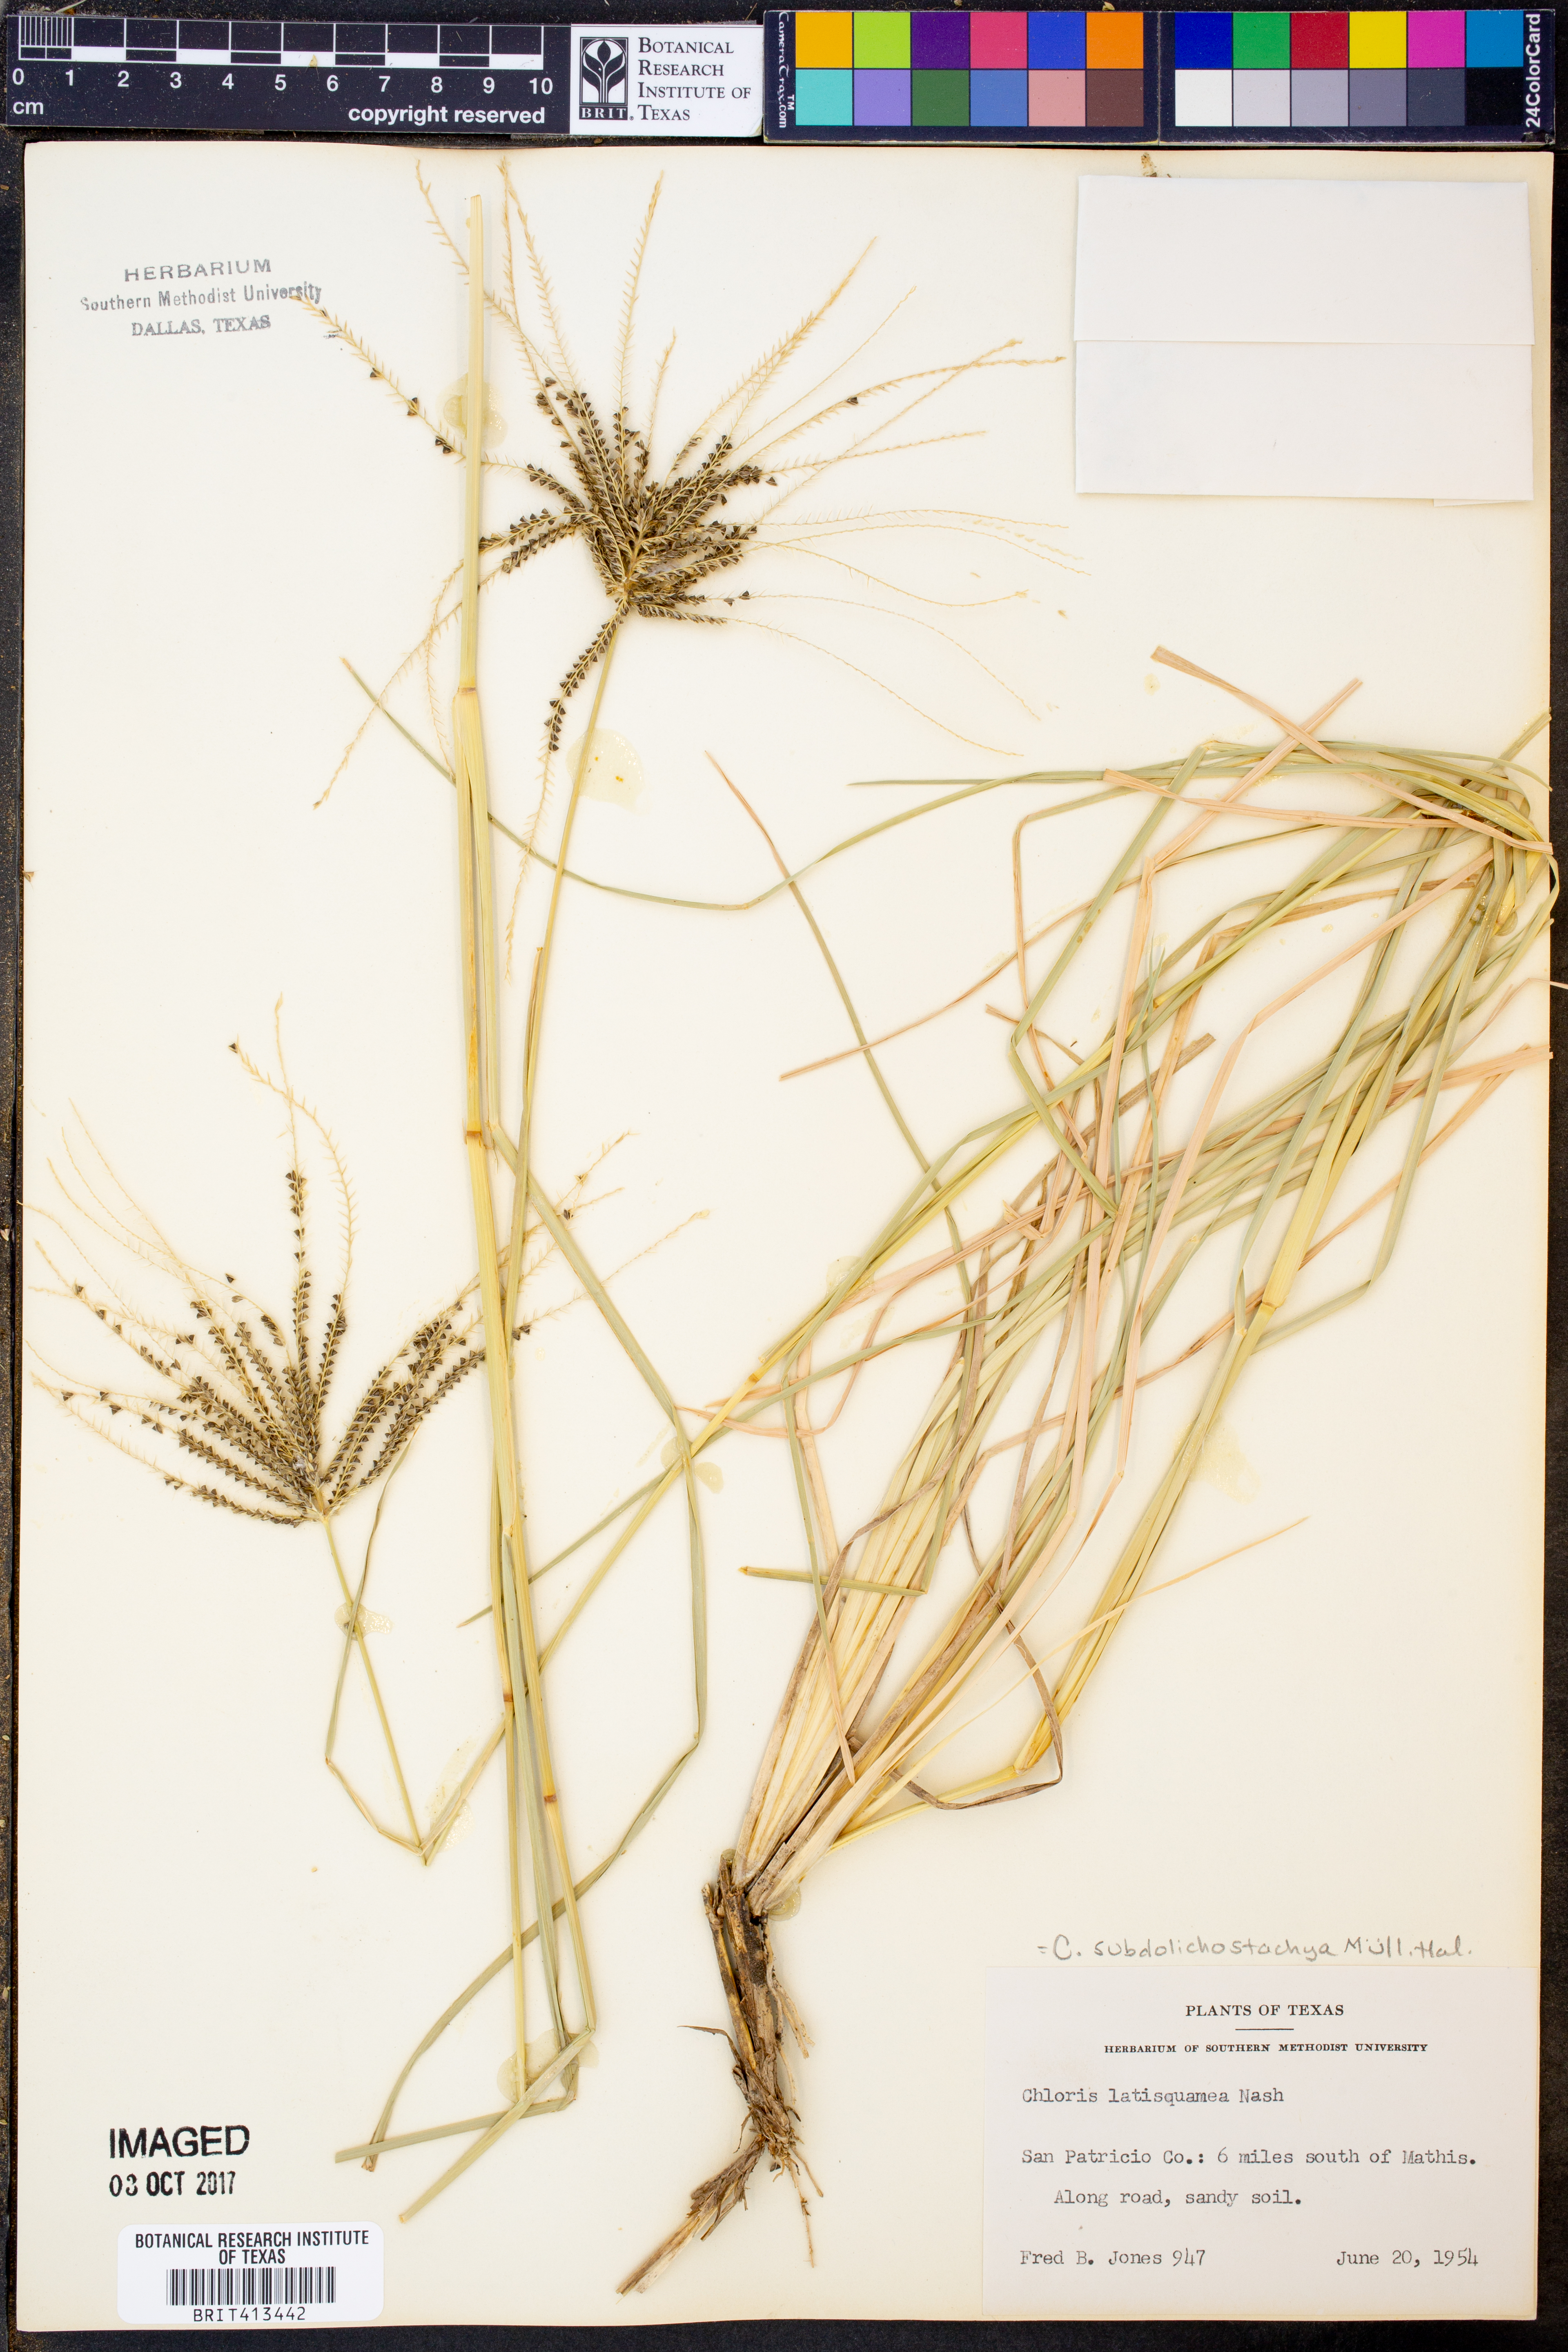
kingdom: Plantae
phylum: Tracheophyta
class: Liliopsida
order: Poales
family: Poaceae
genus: Chloris
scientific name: Chloris subdolichostachya
